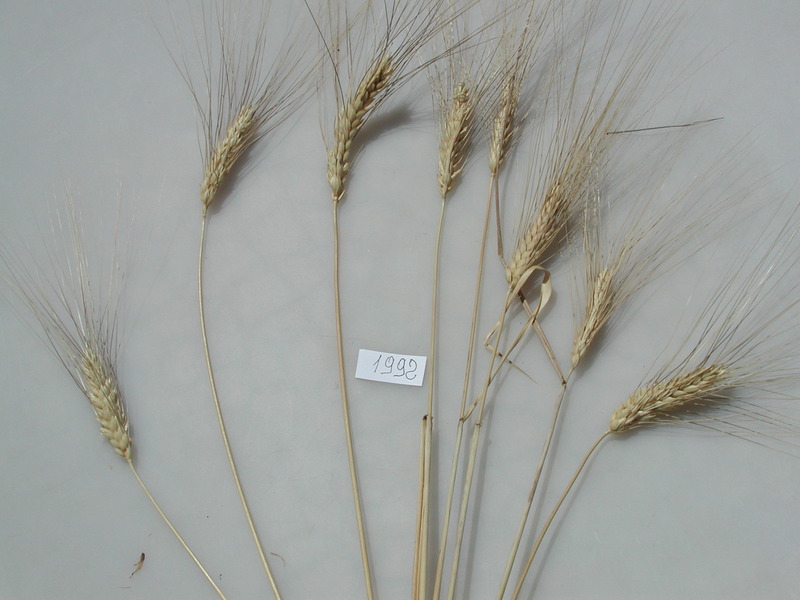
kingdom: Plantae
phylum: Tracheophyta
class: Liliopsida
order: Poales
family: Poaceae
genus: Triticum
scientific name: Triticum turgidum
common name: Wheat
